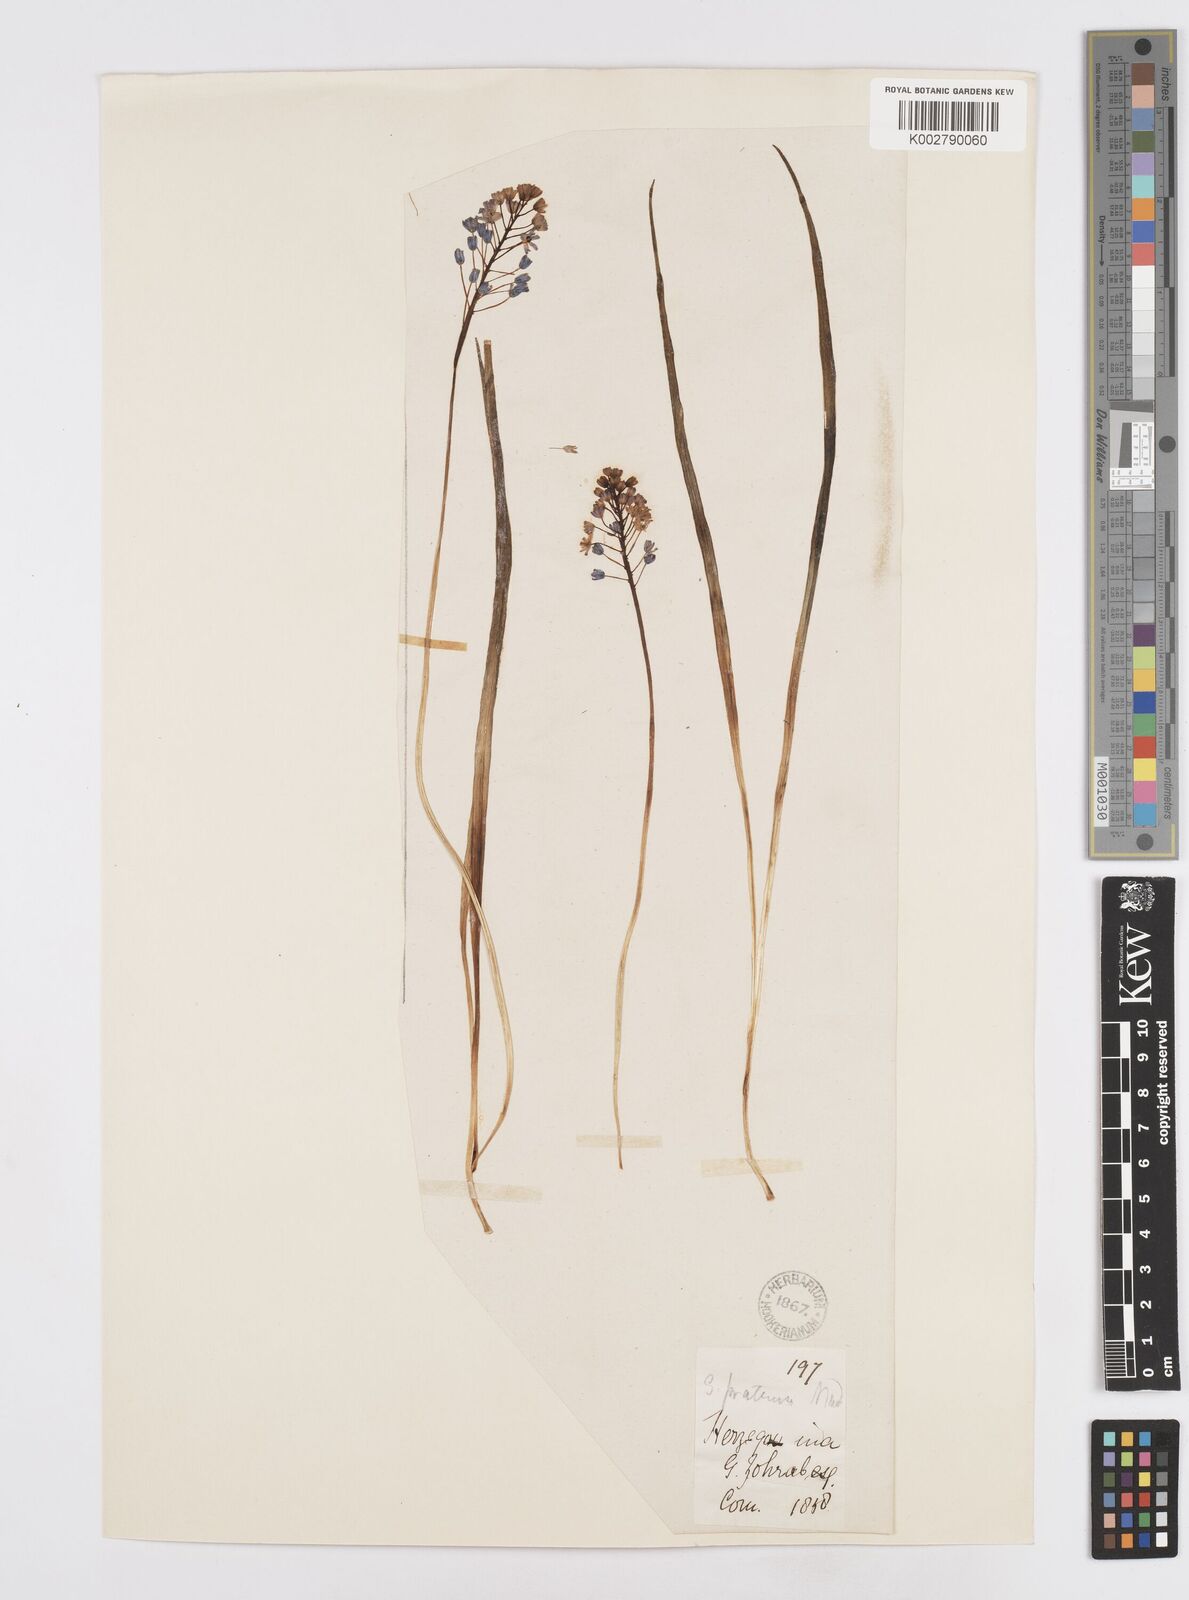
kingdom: Plantae
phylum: Tracheophyta
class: Liliopsida
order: Asparagales
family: Asparagaceae
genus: Scilla
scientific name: Scilla litardierei
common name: Amethyst meadow squill
